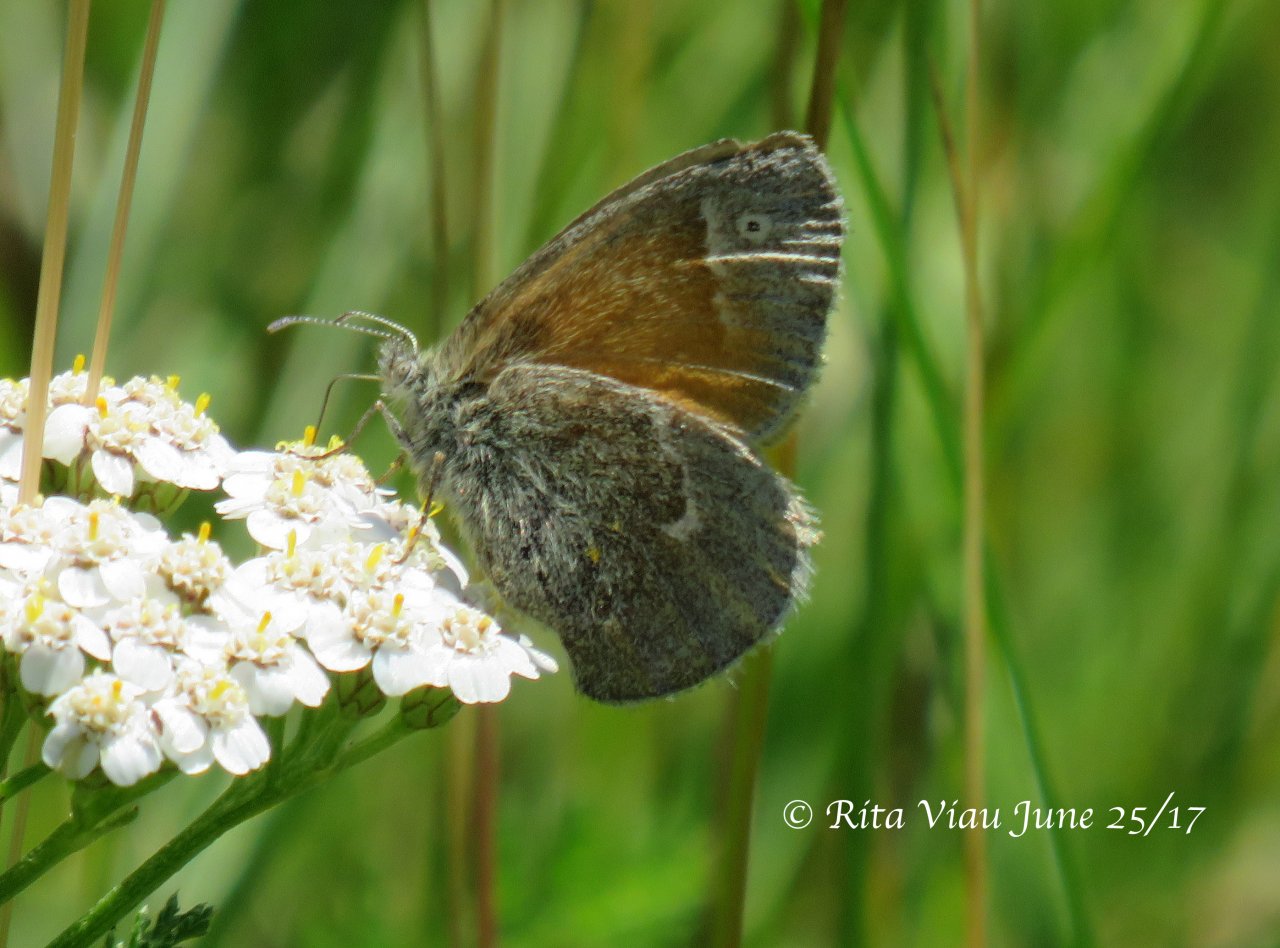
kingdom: Animalia
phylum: Arthropoda
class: Insecta
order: Lepidoptera
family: Nymphalidae
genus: Coenonympha
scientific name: Coenonympha tullia
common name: Large Heath
